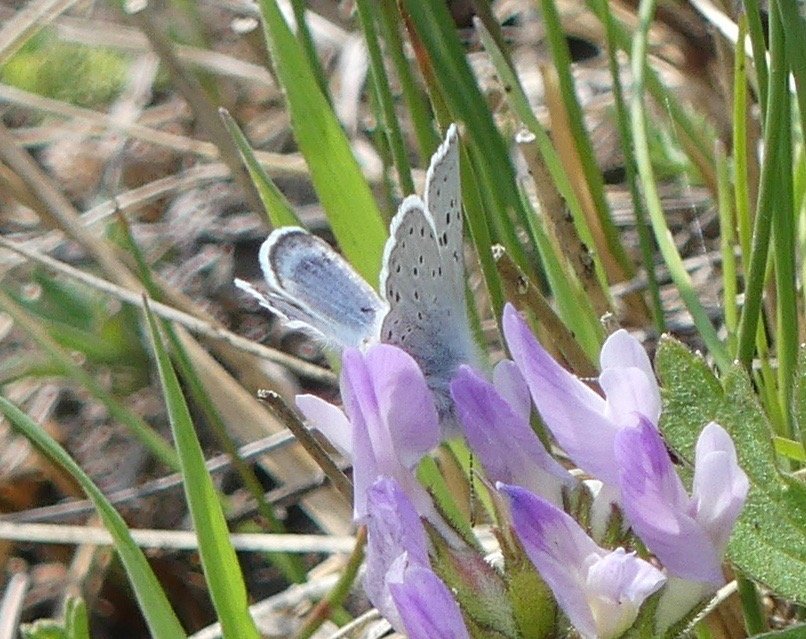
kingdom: Animalia
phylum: Arthropoda
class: Insecta
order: Lepidoptera
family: Lycaenidae
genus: Plebejus
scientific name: Plebejus saepiolus
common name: Greenish Blue
